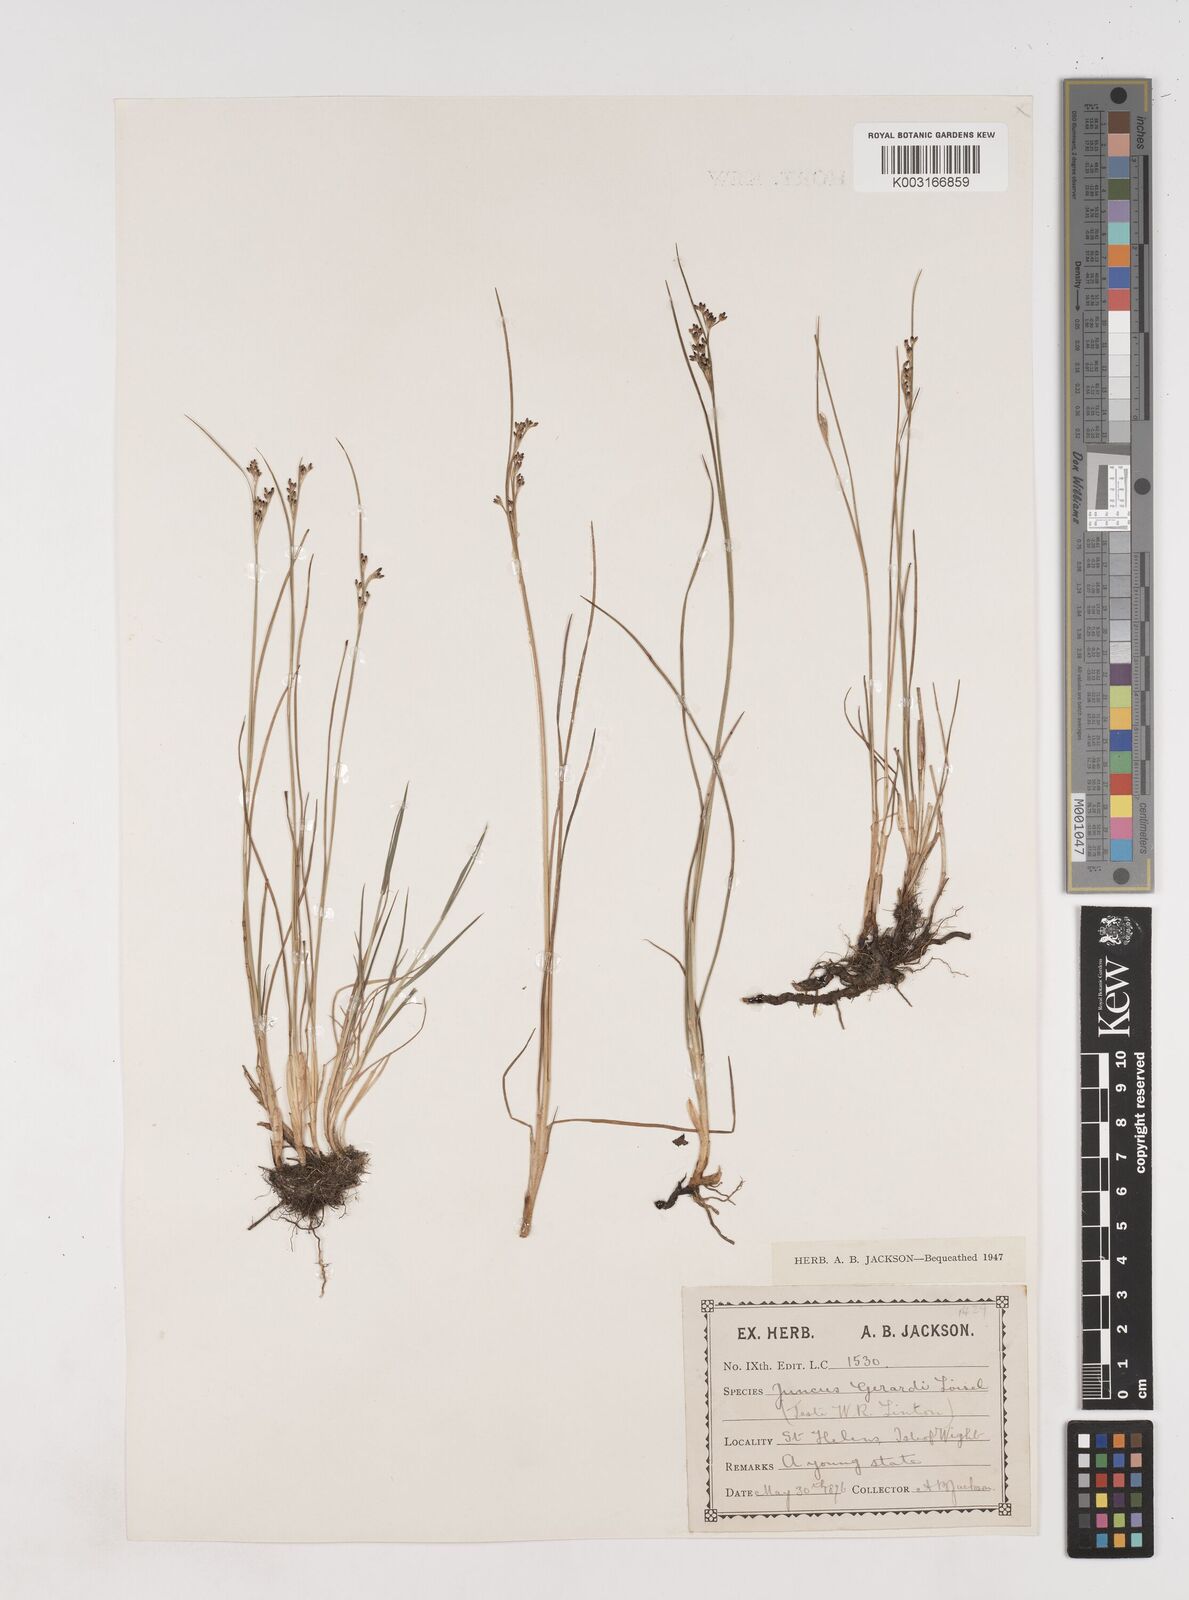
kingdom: Plantae
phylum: Tracheophyta
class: Liliopsida
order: Poales
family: Juncaceae
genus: Juncus
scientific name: Juncus gerardi
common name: Saltmarsh rush
